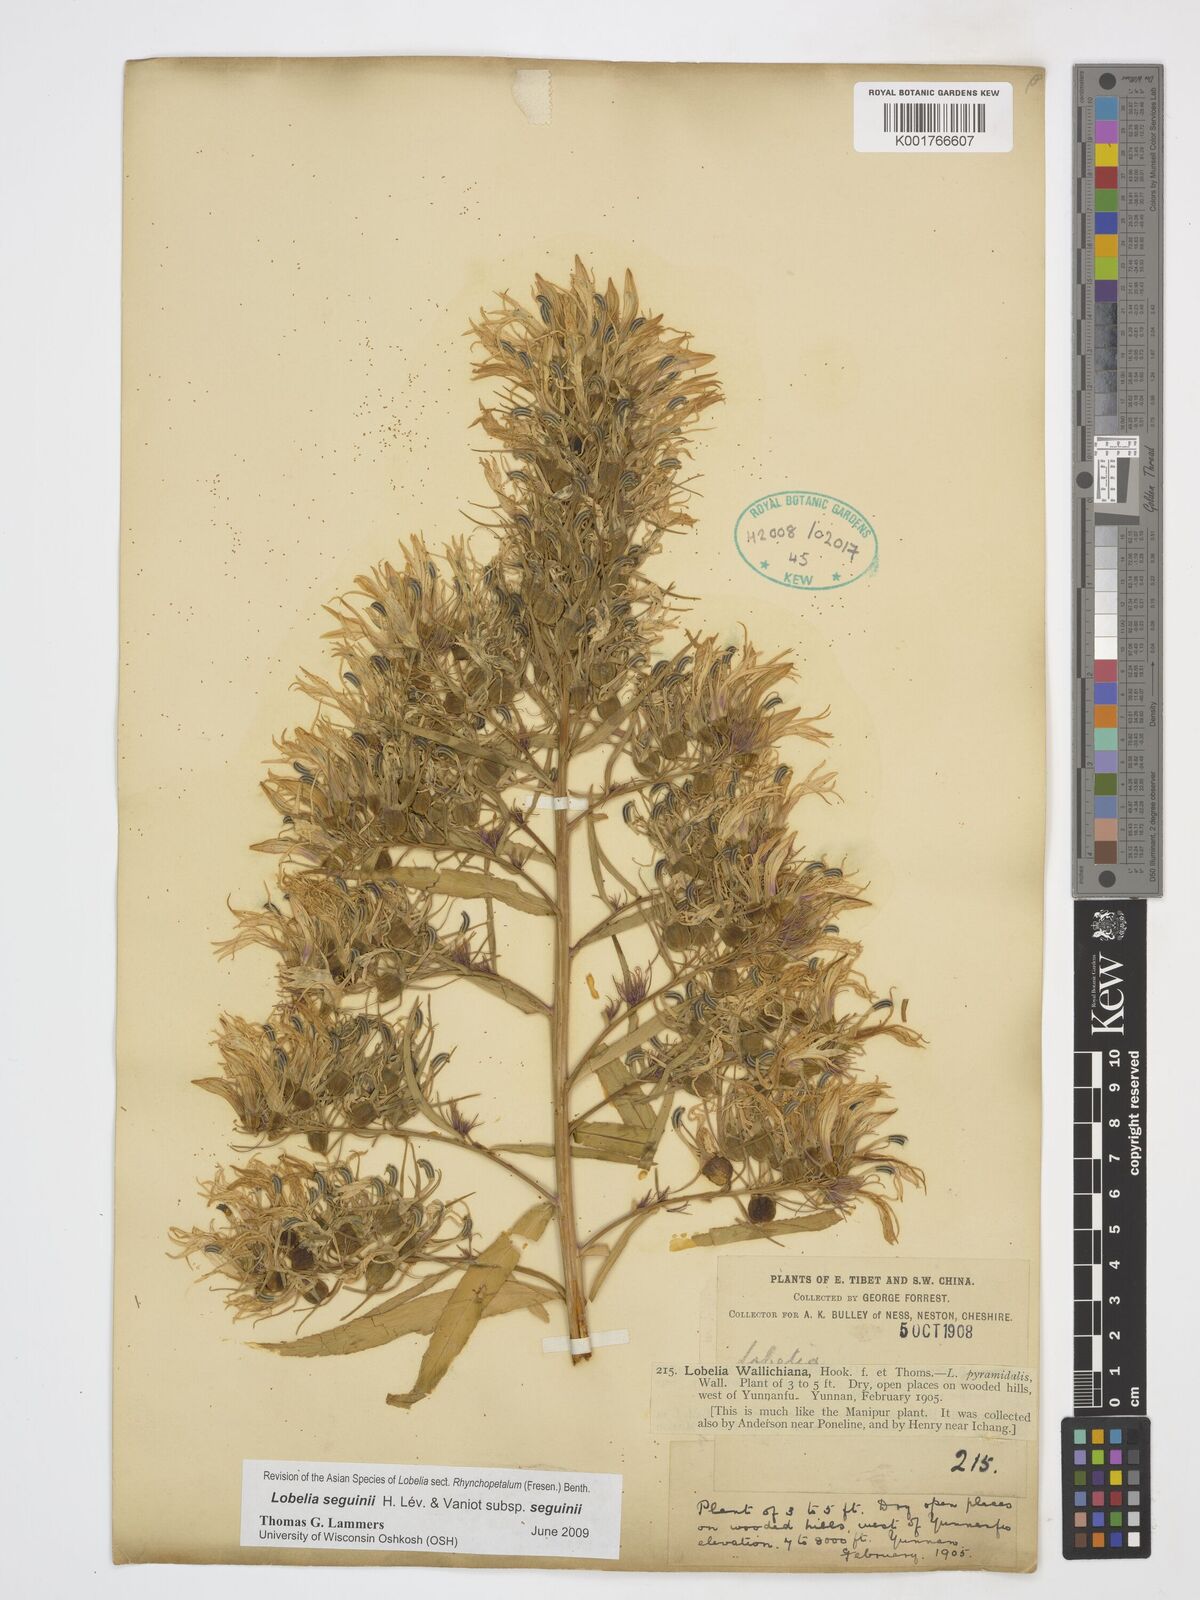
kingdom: Plantae
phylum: Tracheophyta
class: Magnoliopsida
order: Asterales
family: Campanulaceae
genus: Lobelia
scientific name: Lobelia seguinii
